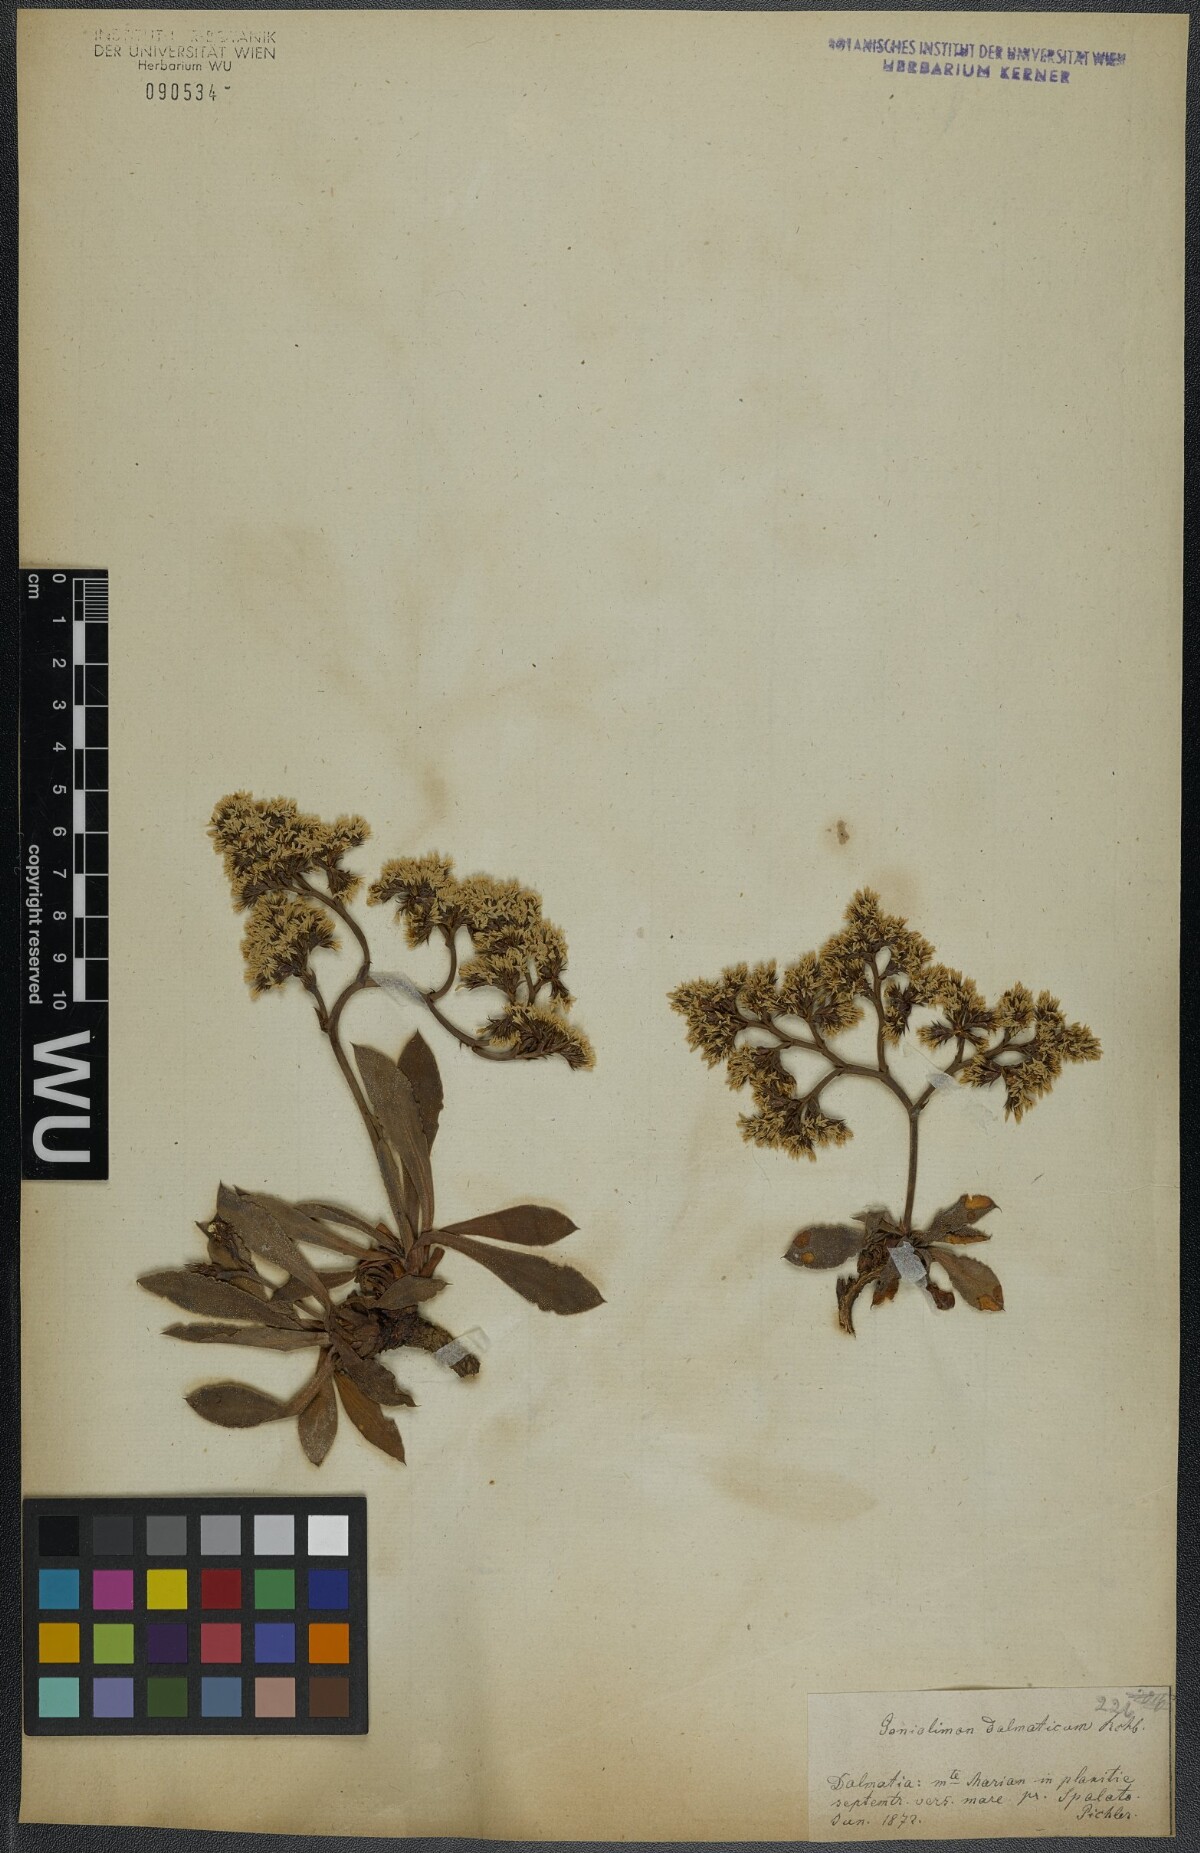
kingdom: Plantae
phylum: Tracheophyta
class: Magnoliopsida
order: Caryophyllales
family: Plumbaginaceae
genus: Goniolimon
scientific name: Goniolimon dalmaticum
